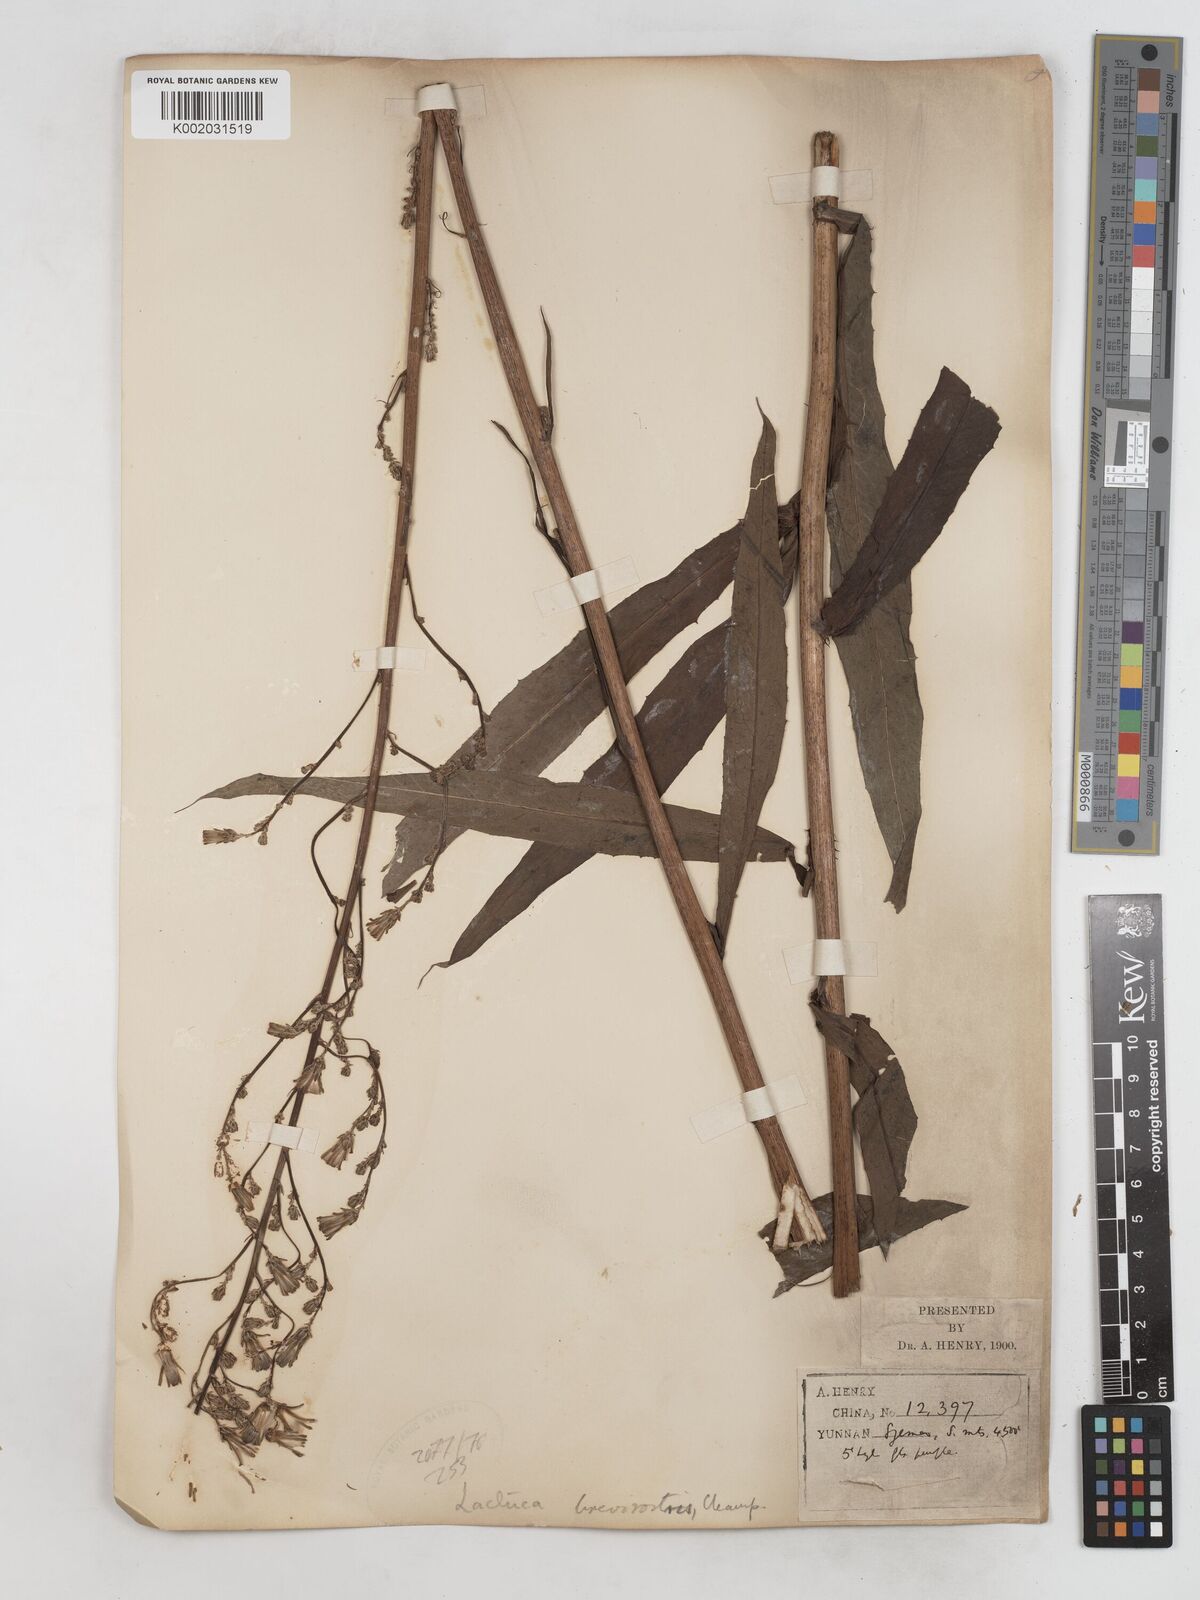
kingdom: Plantae
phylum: Tracheophyta
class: Magnoliopsida
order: Asterales
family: Asteraceae
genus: Lactuca
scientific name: Lactuca indica
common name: Wild lettuce
